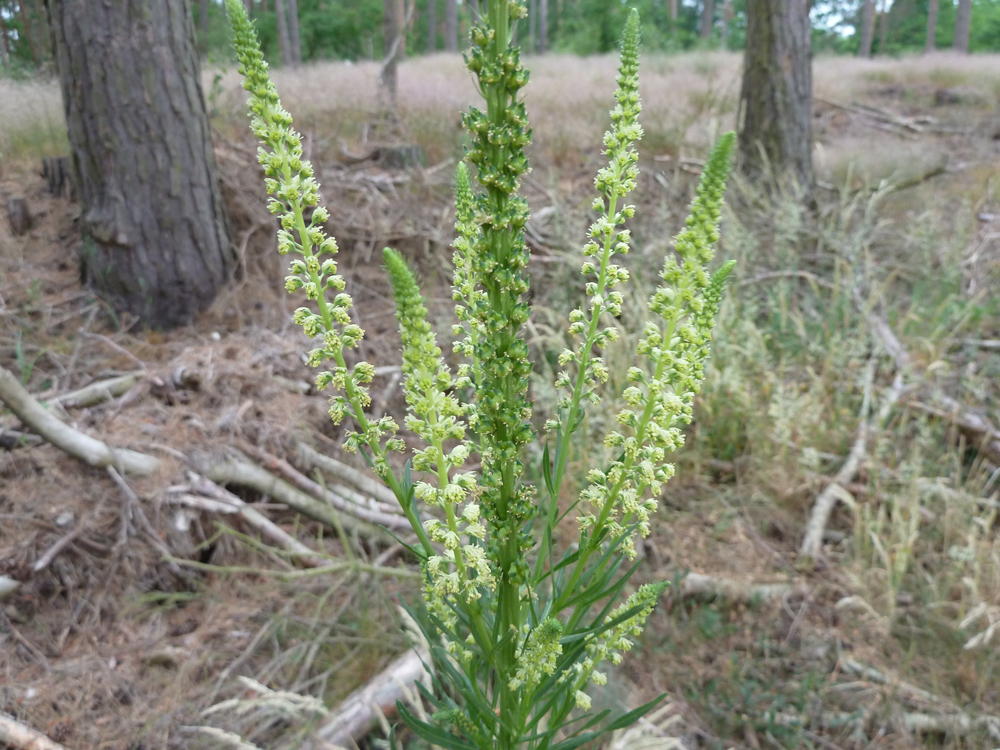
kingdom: Plantae
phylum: Tracheophyta
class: Magnoliopsida
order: Brassicales
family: Resedaceae
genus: Reseda
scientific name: Reseda luteola
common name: Weld
